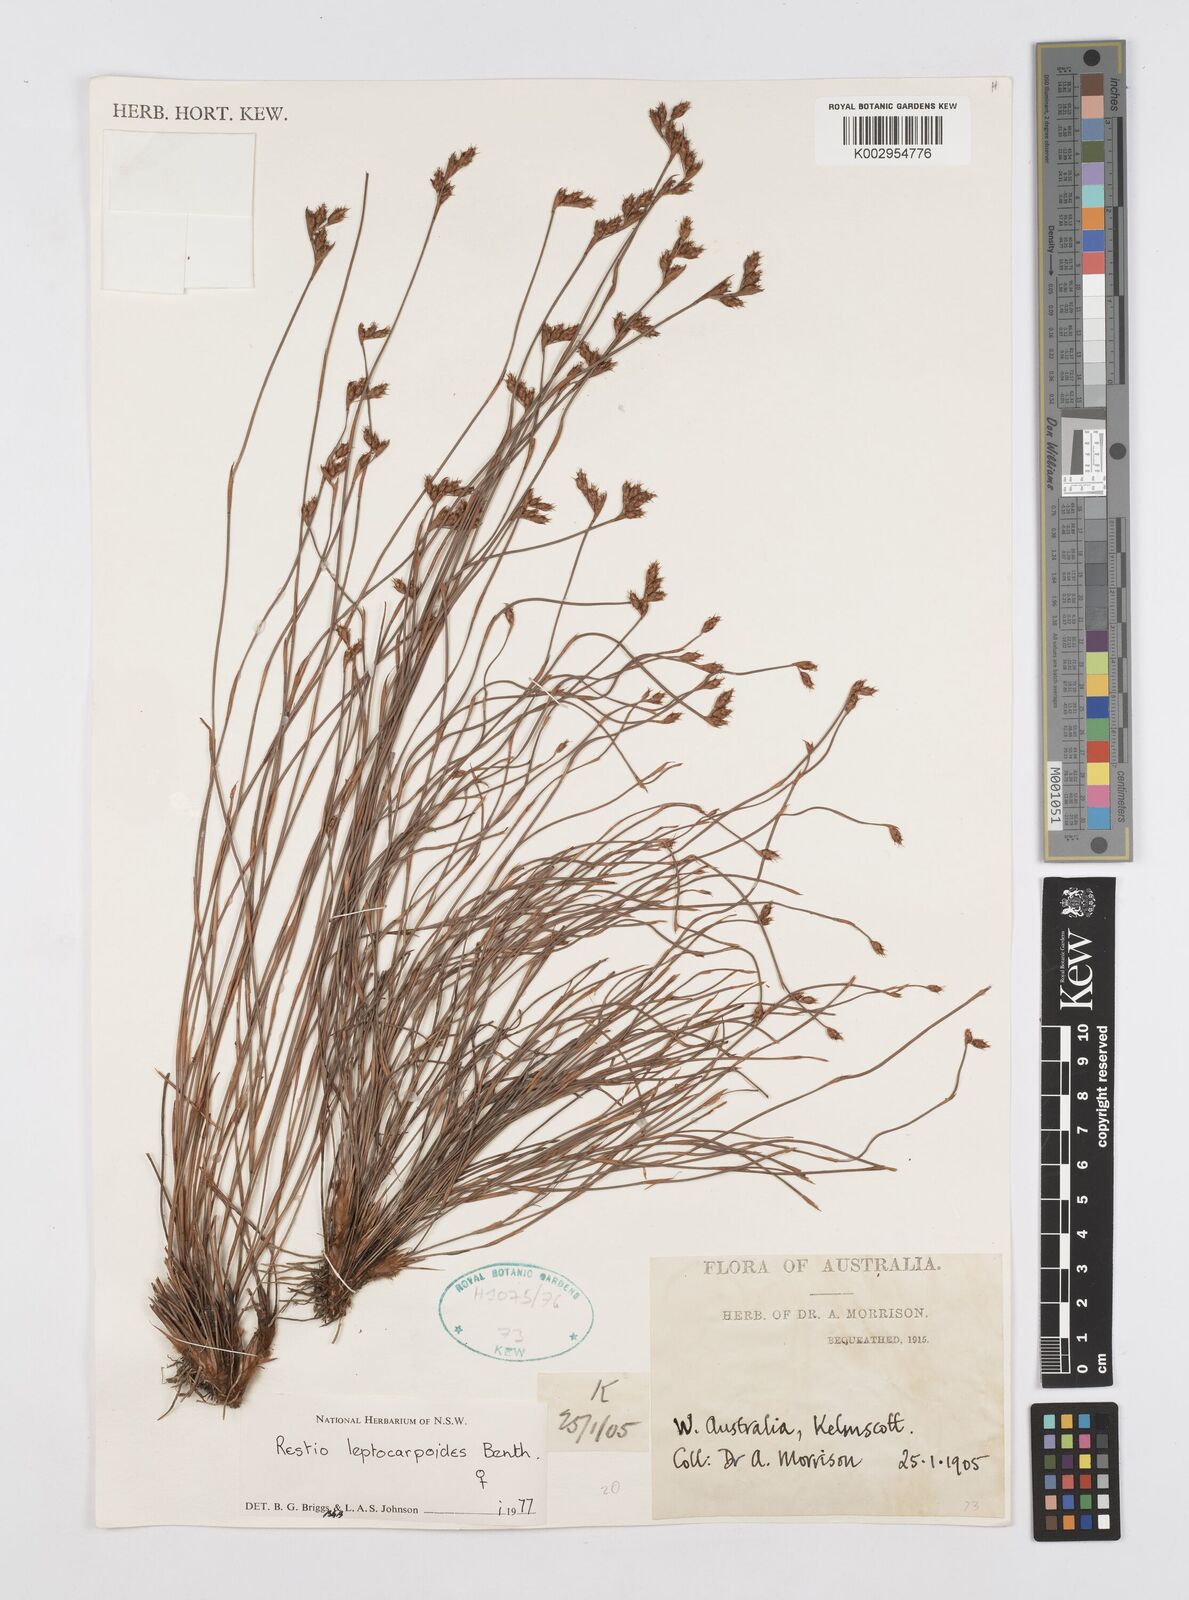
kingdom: Plantae
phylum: Tracheophyta
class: Liliopsida
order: Poales
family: Restionaceae
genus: Cytogonidium
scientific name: Cytogonidium leptocarpoides
